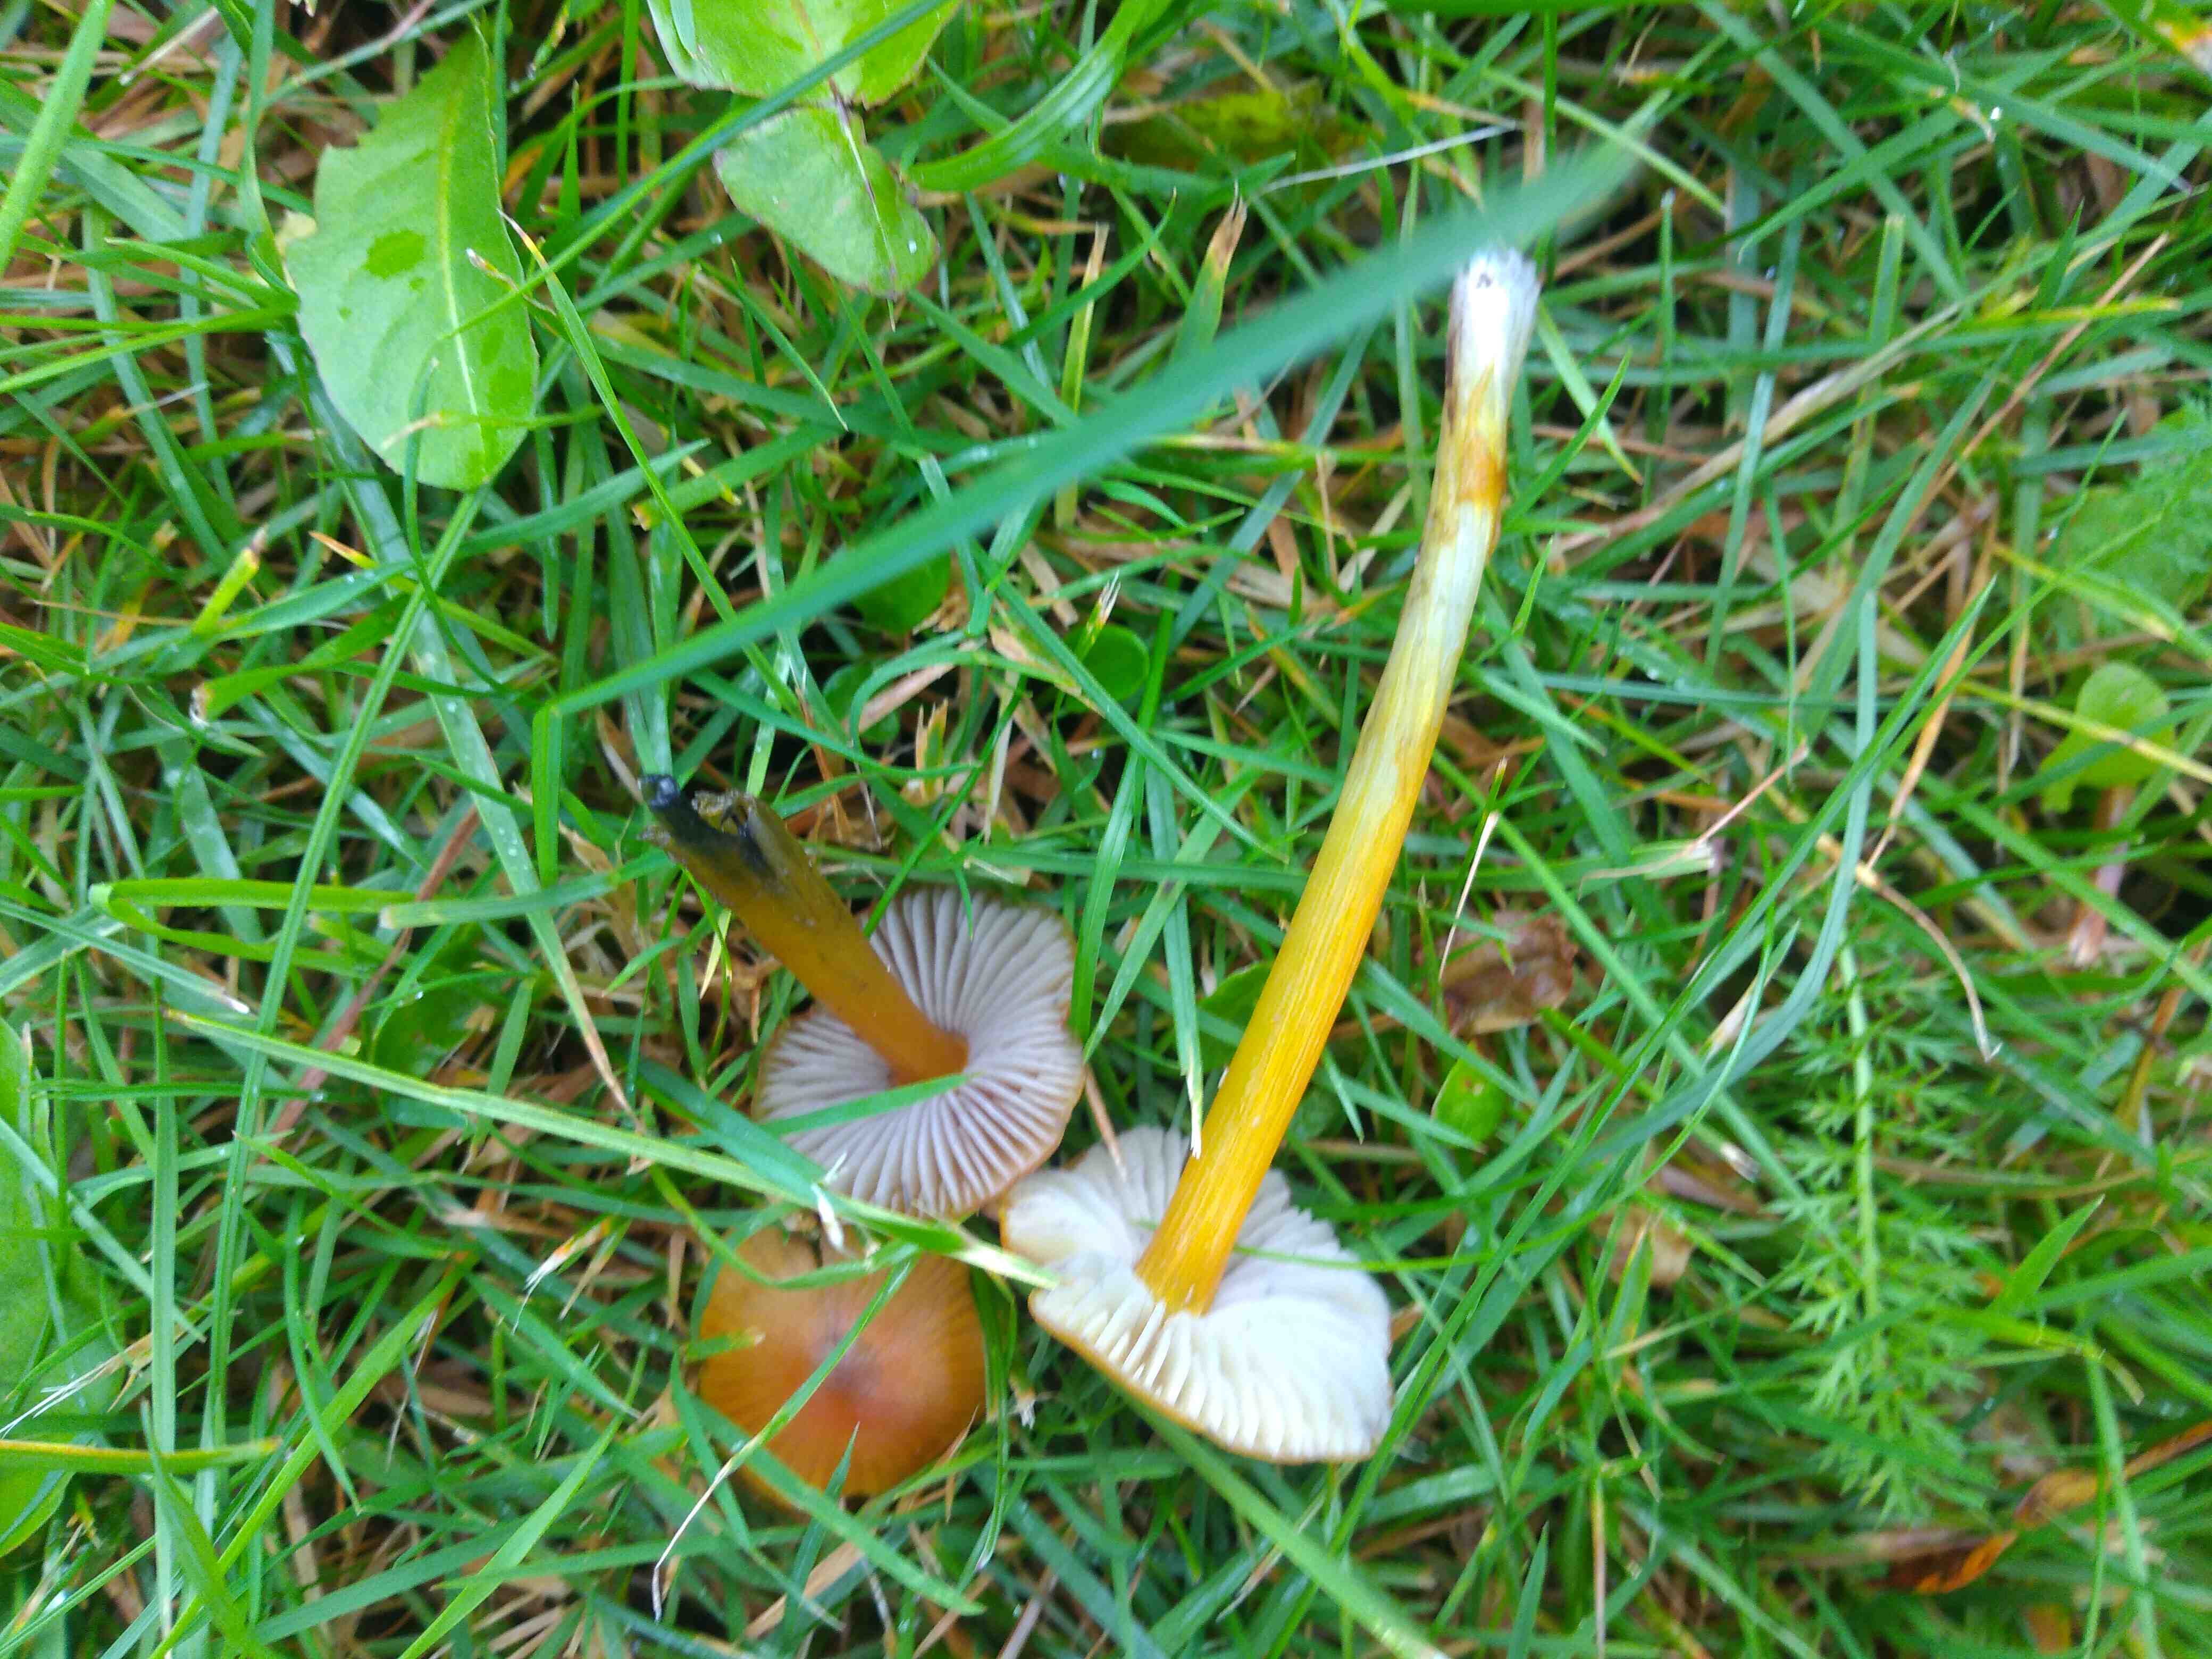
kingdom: Fungi
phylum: Basidiomycota
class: Agaricomycetes
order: Agaricales
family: Hygrophoraceae
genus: Hygrocybe
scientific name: Hygrocybe conica
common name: kegle-vokshat
